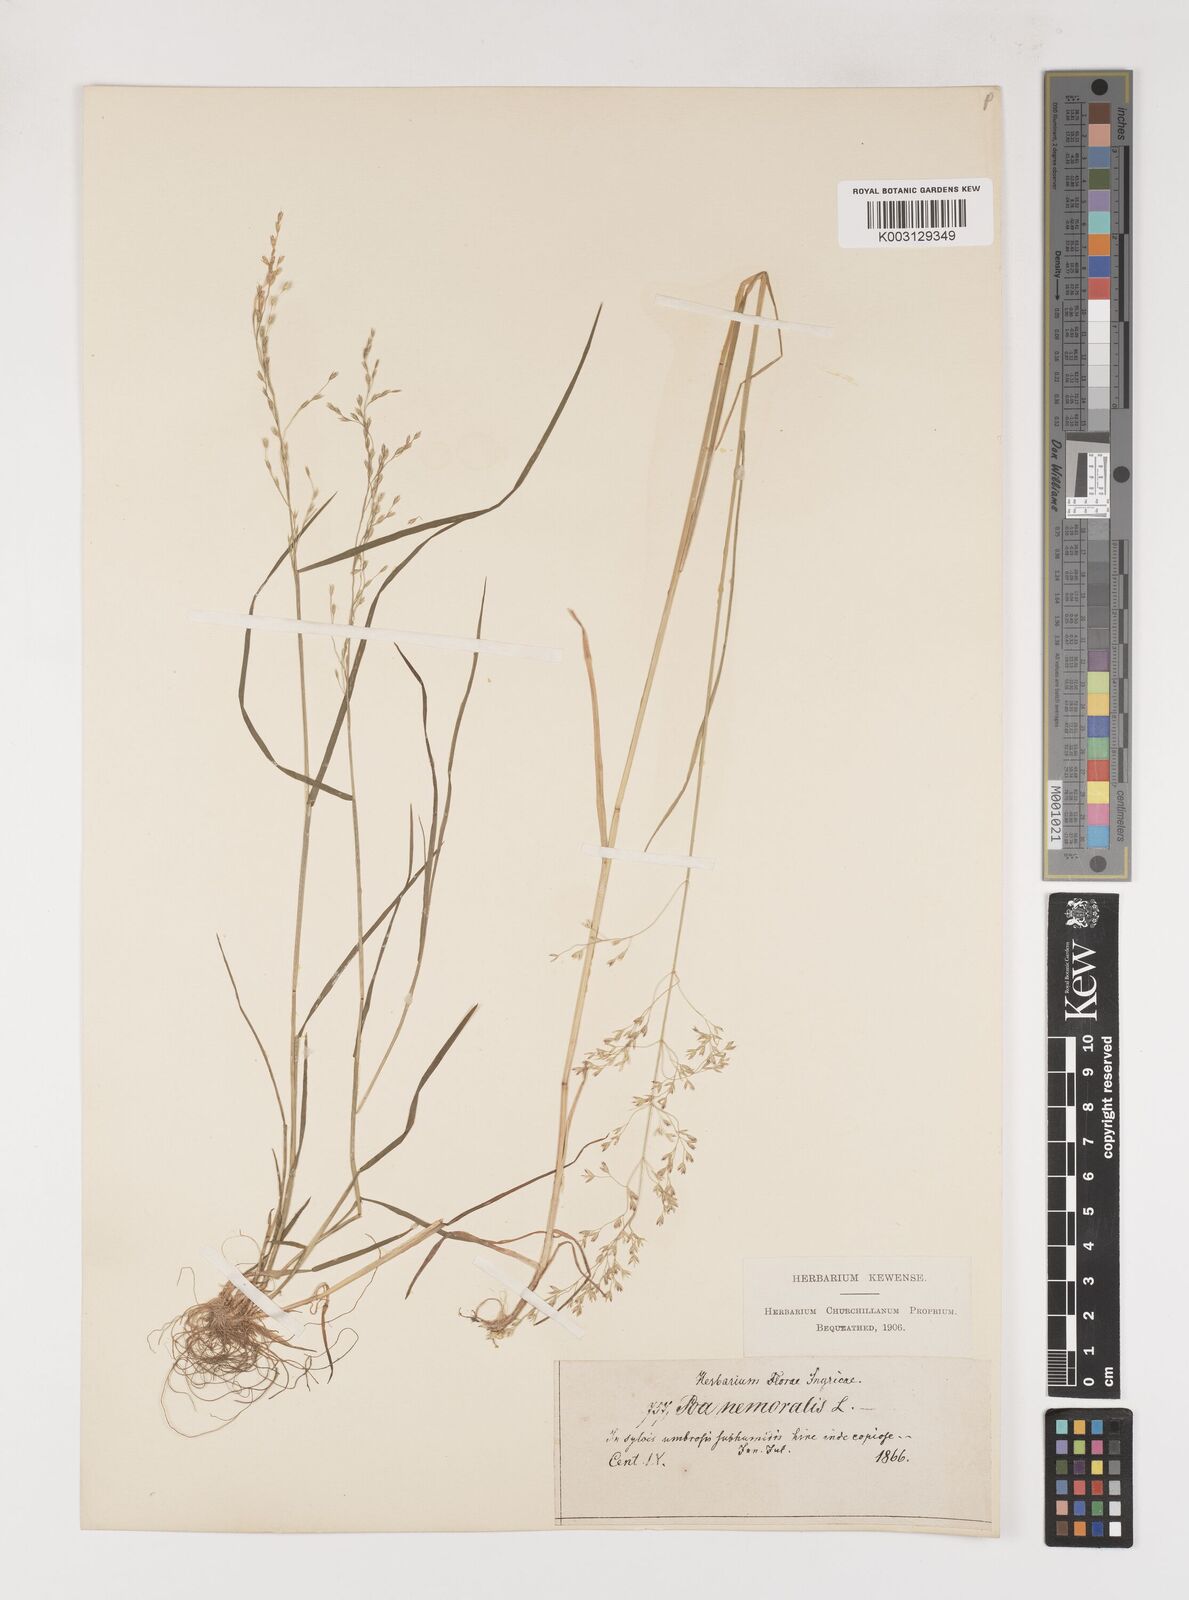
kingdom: Plantae
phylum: Tracheophyta
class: Liliopsida
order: Poales
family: Poaceae
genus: Poa
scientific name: Poa nemoralis
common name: Wood bluegrass
